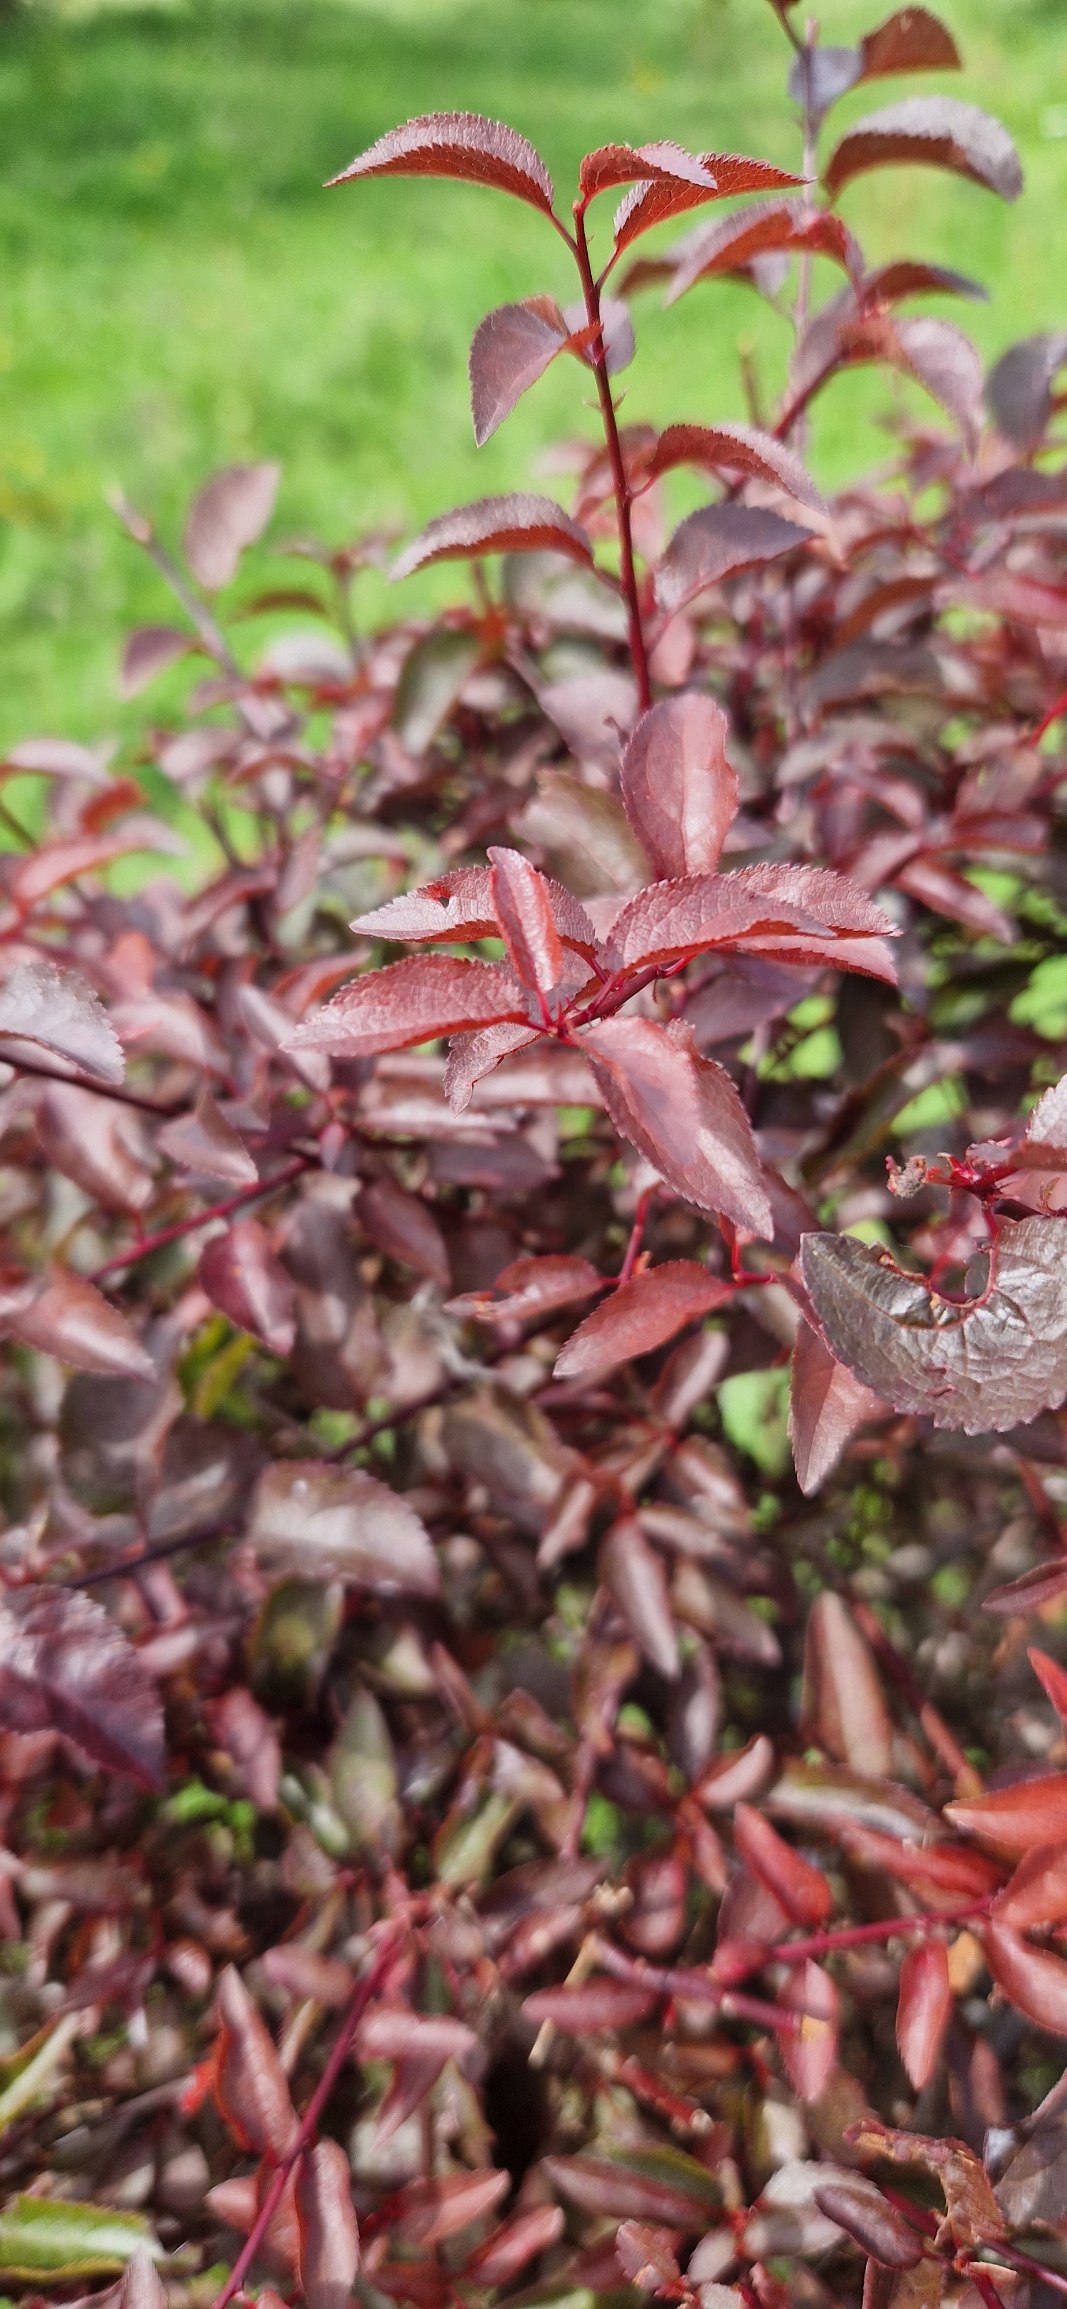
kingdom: Plantae
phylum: Tracheophyta
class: Magnoliopsida
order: Rosales
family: Rosaceae
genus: Prunus
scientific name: Prunus cerasifera
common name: Mirabel
